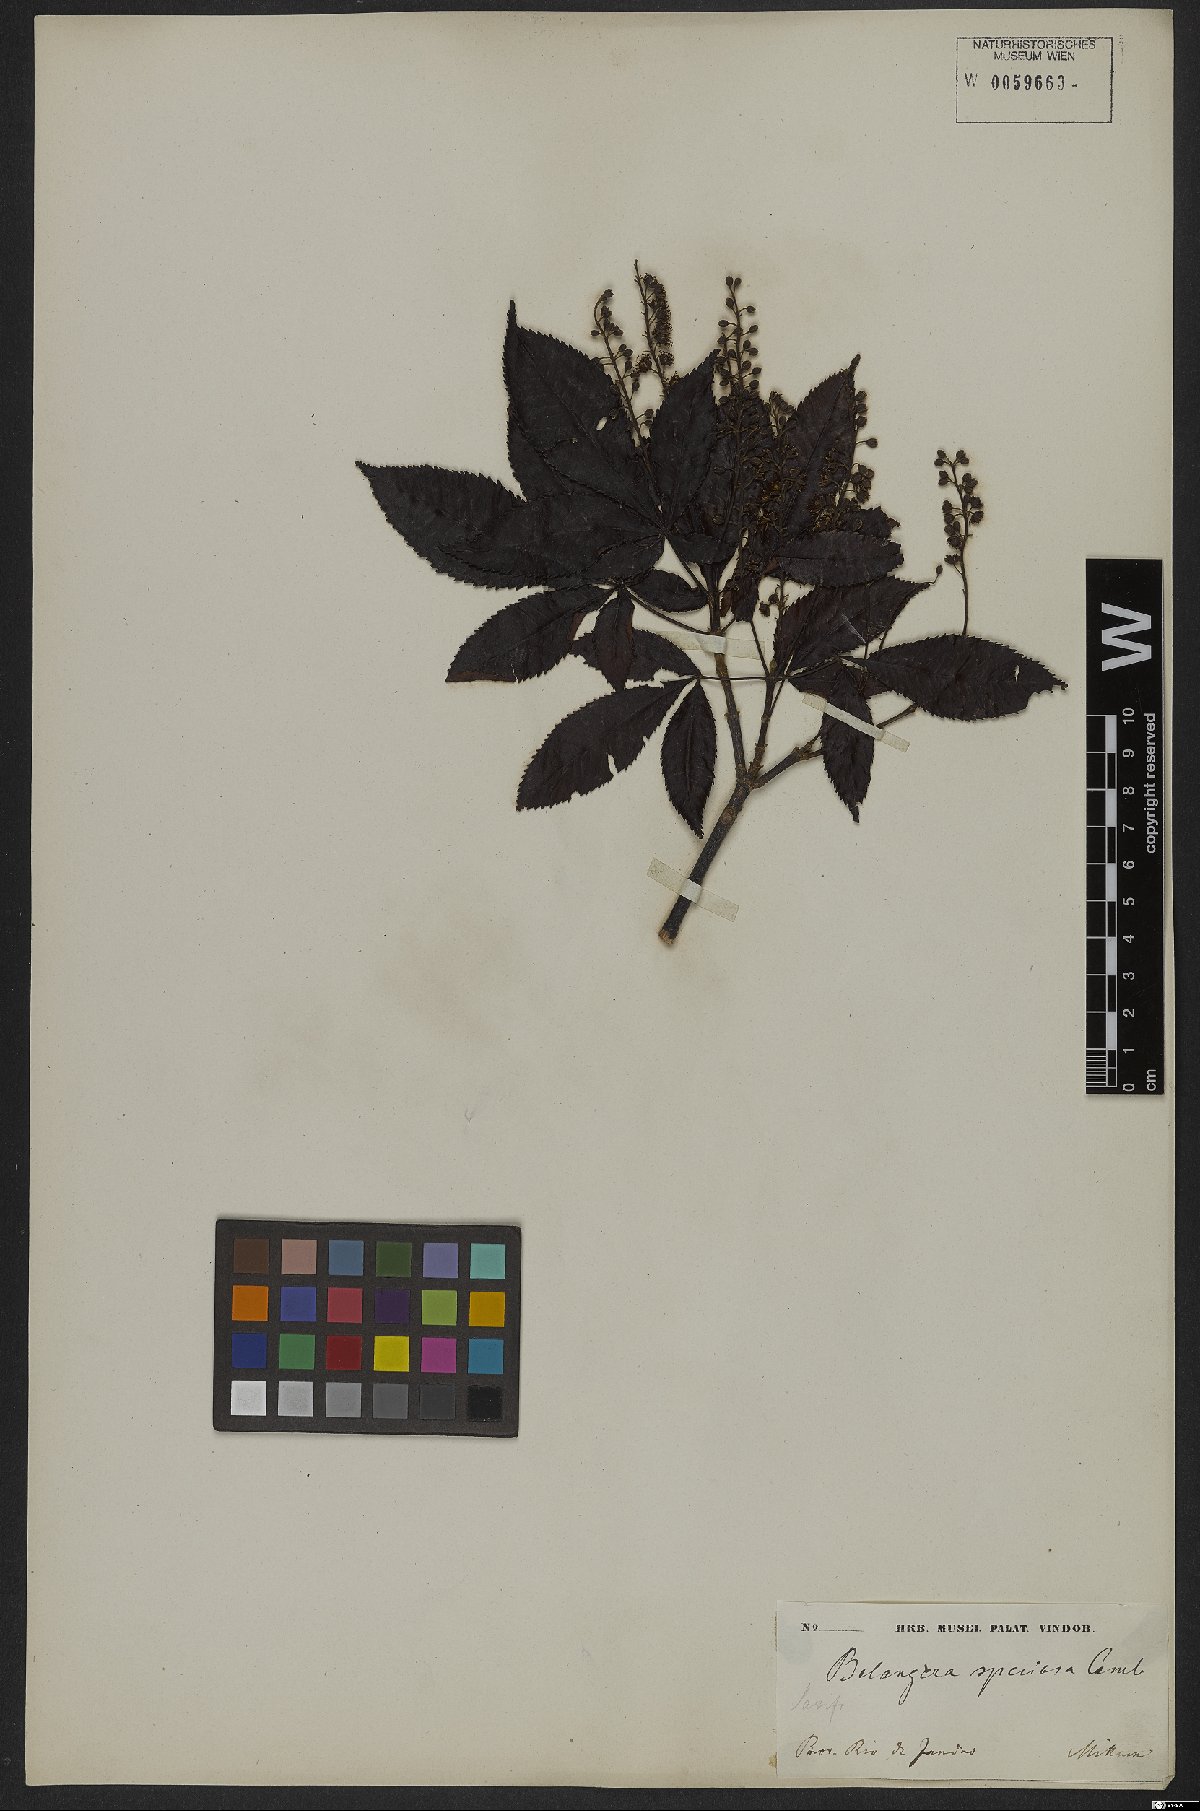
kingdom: Plantae
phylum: Tracheophyta
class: Magnoliopsida
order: Oxalidales
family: Cunoniaceae
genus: Lamanonia
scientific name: Lamanonia speciosa
